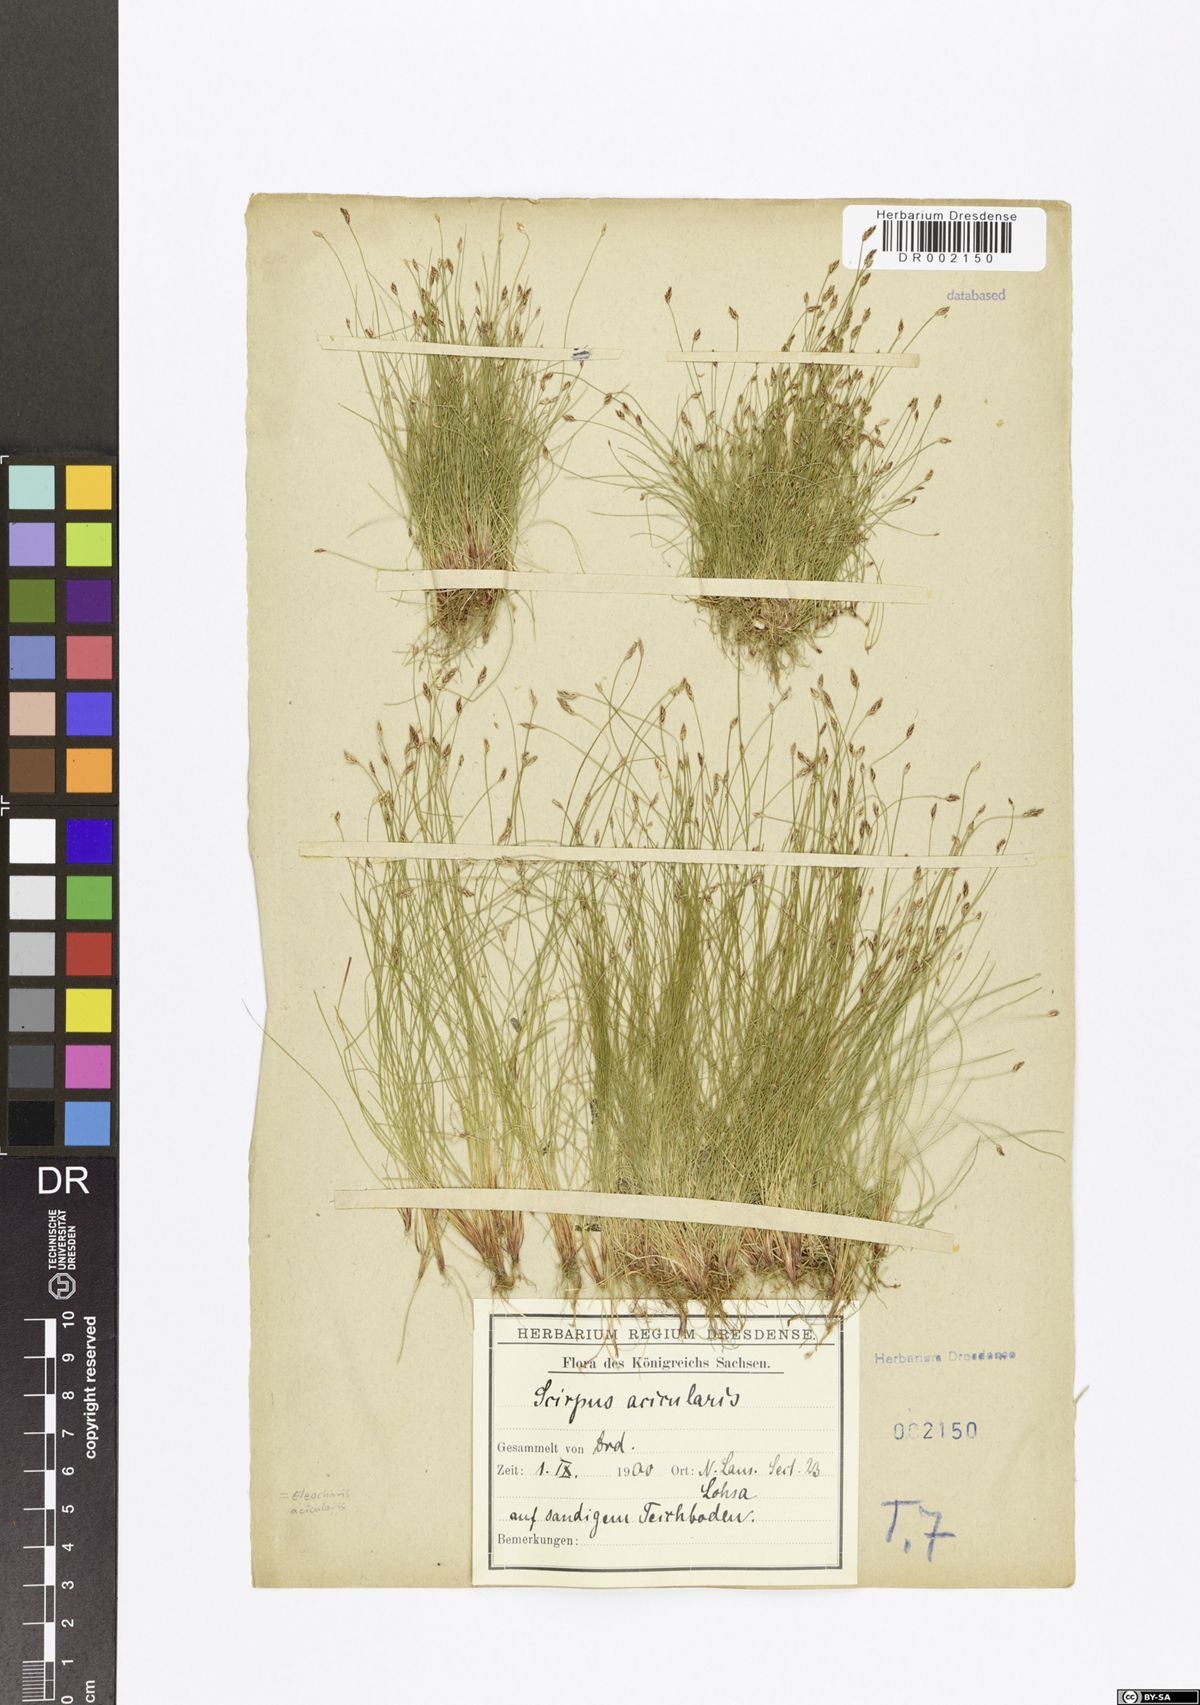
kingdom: Plantae
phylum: Tracheophyta
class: Liliopsida
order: Poales
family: Cyperaceae
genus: Eleocharis
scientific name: Eleocharis acicularis
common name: Needle spike-rush
